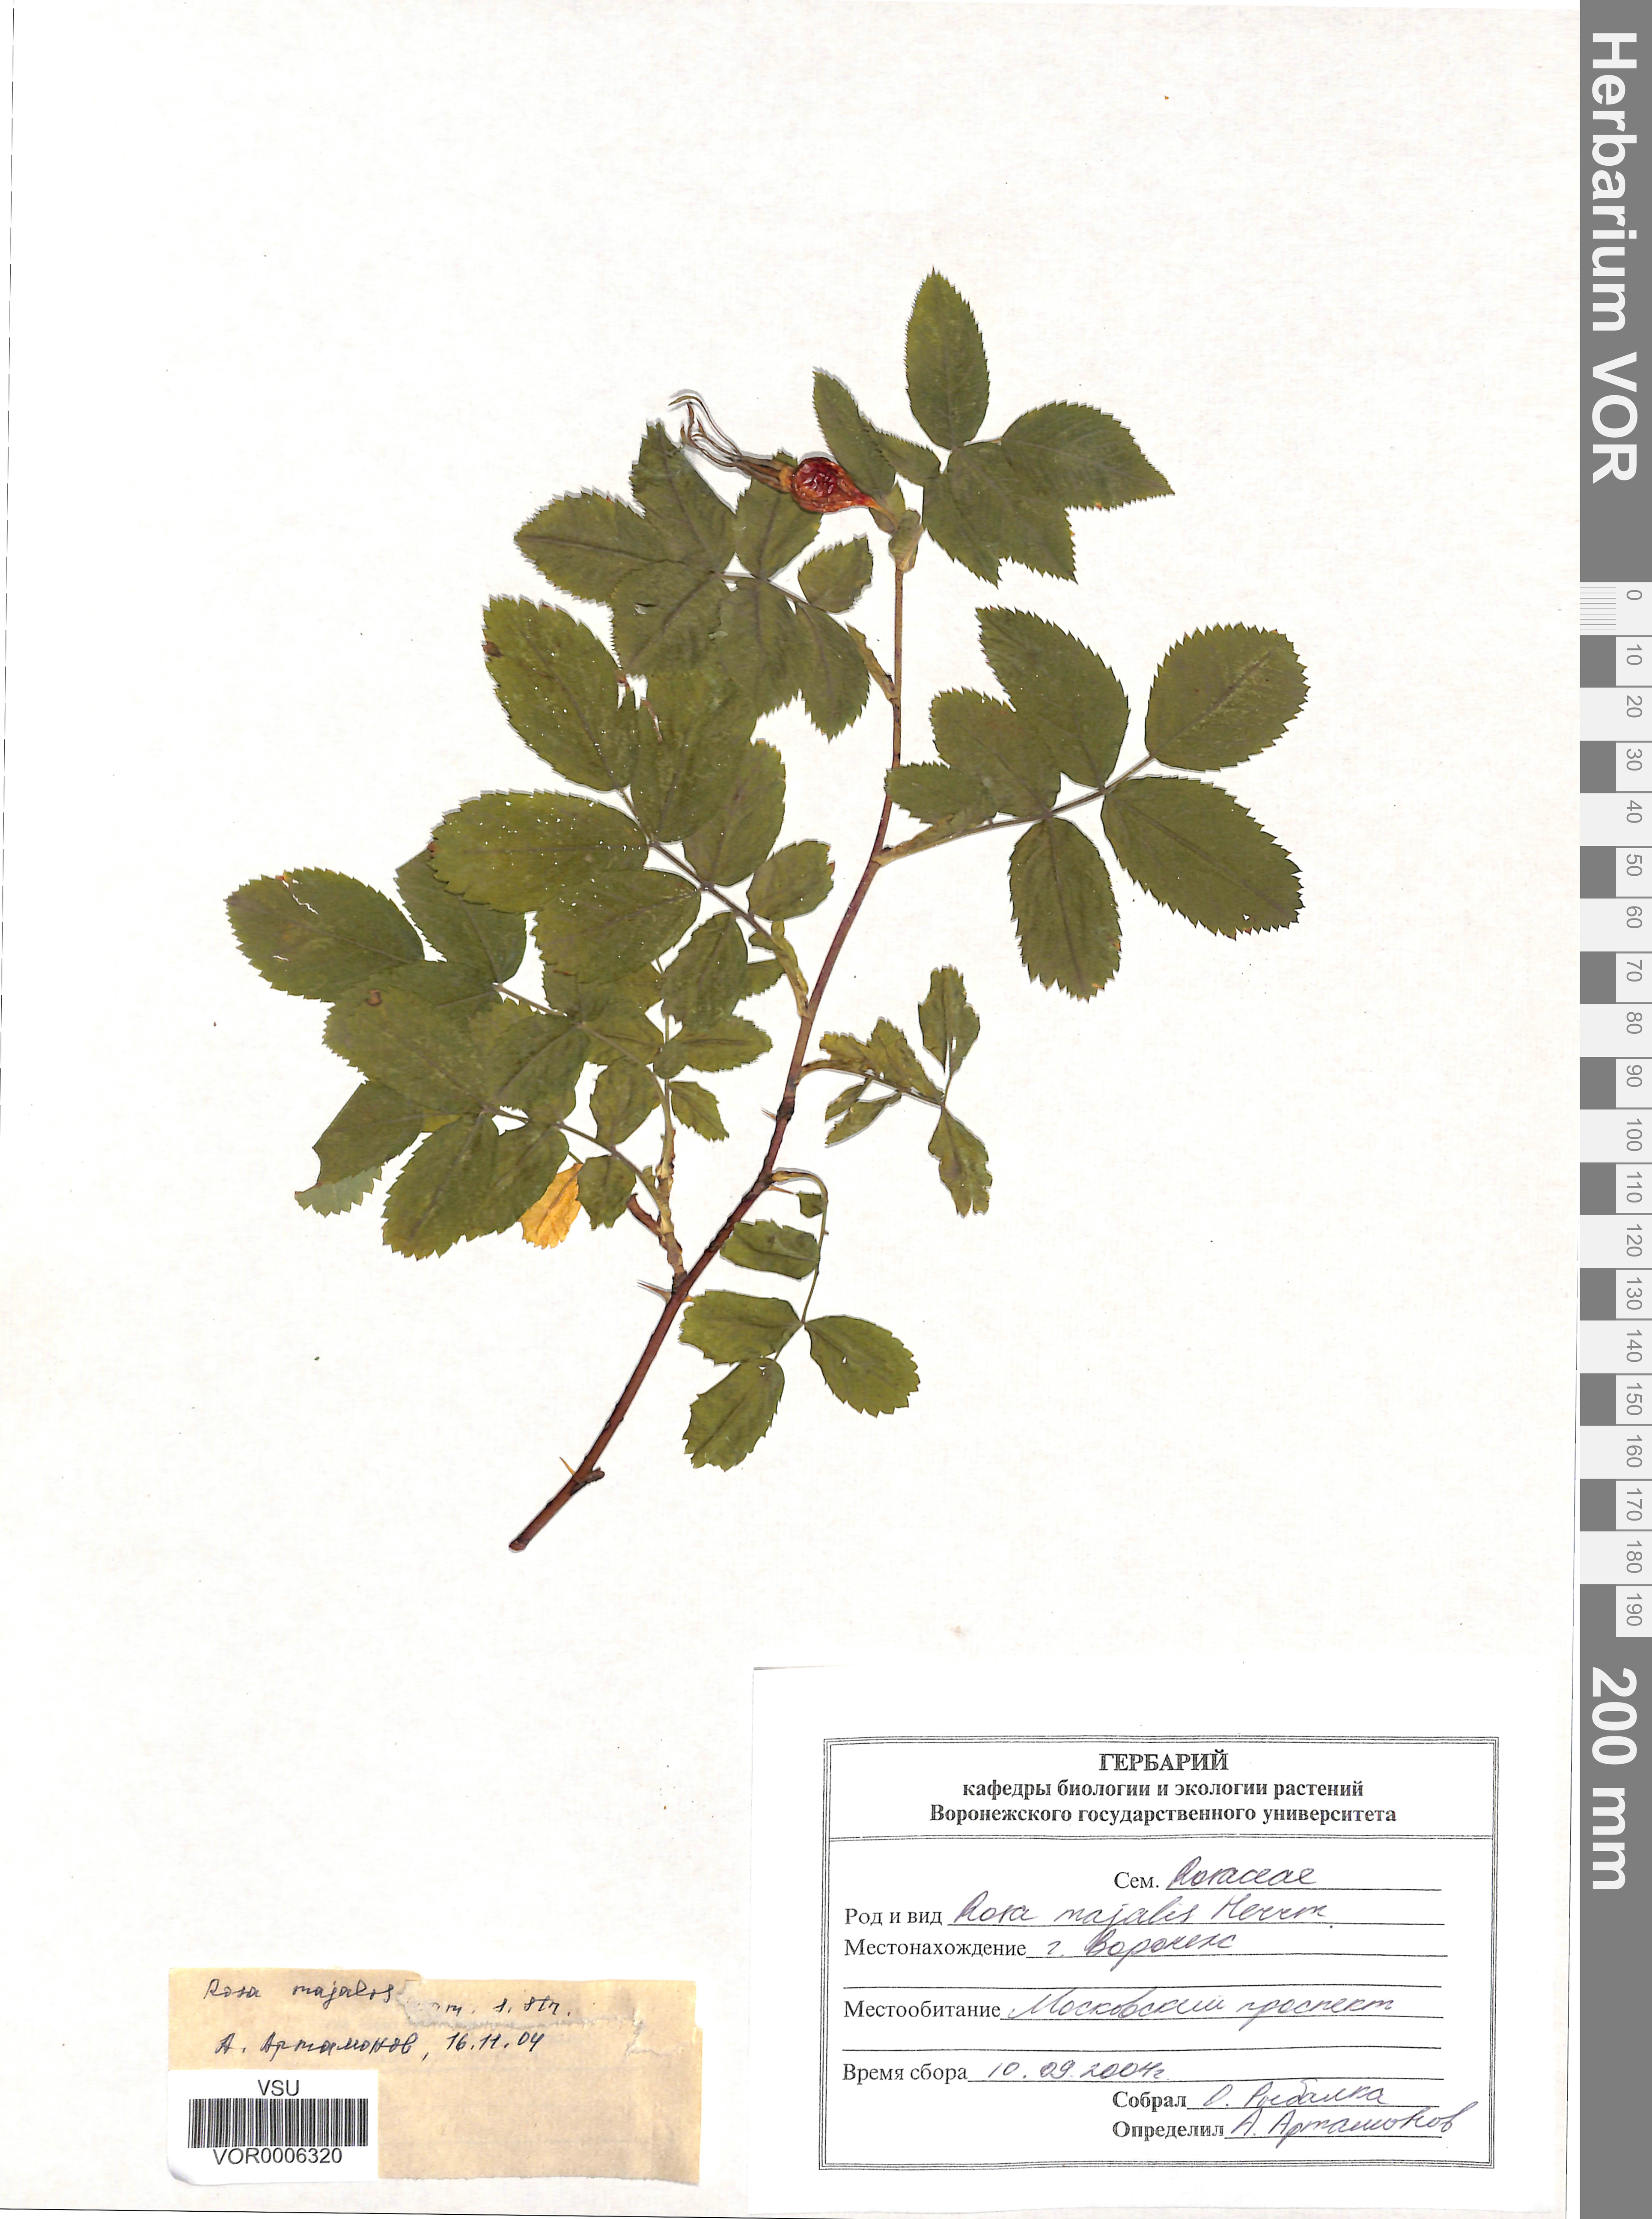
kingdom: Plantae
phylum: Tracheophyta
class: Magnoliopsida
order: Rosales
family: Rosaceae
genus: Rosa
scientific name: Rosa majalis
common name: Cinnamon rose
